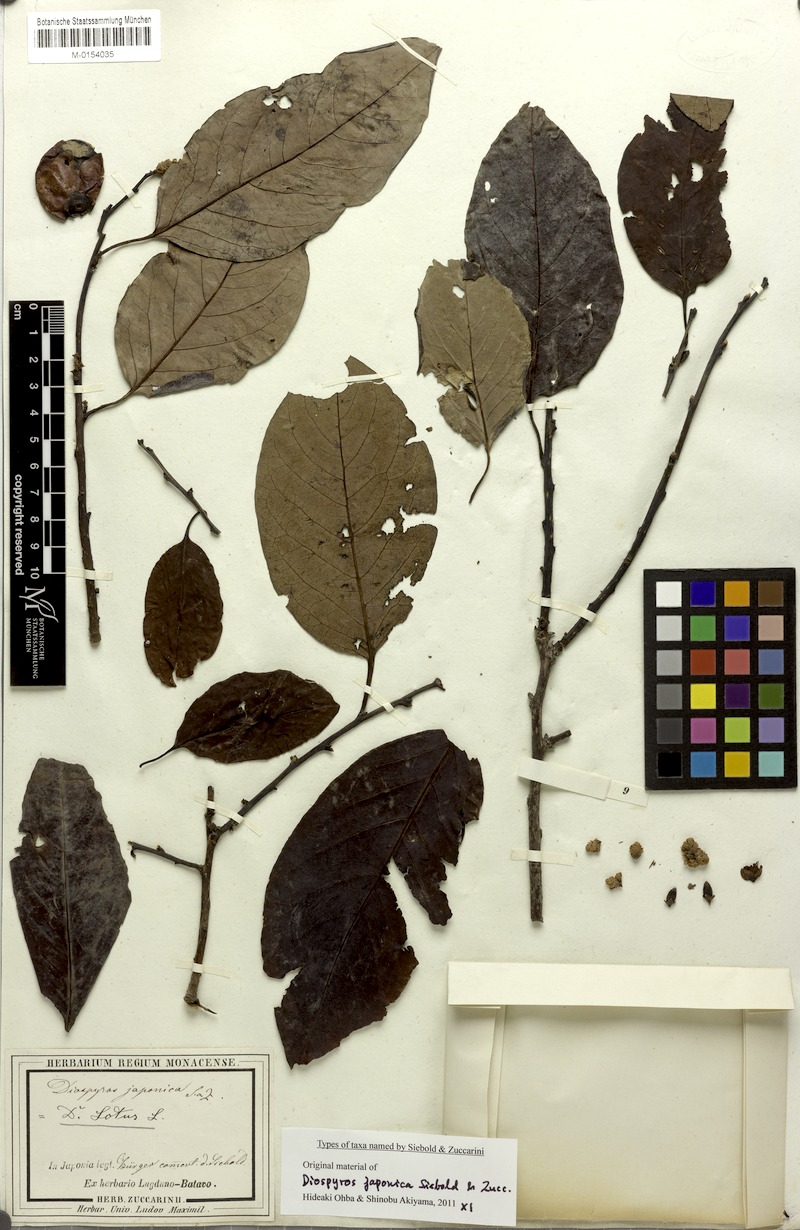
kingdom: Plantae
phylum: Tracheophyta
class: Magnoliopsida
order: Ericales
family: Ebenaceae
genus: Diospyros
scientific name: Diospyros japonica
